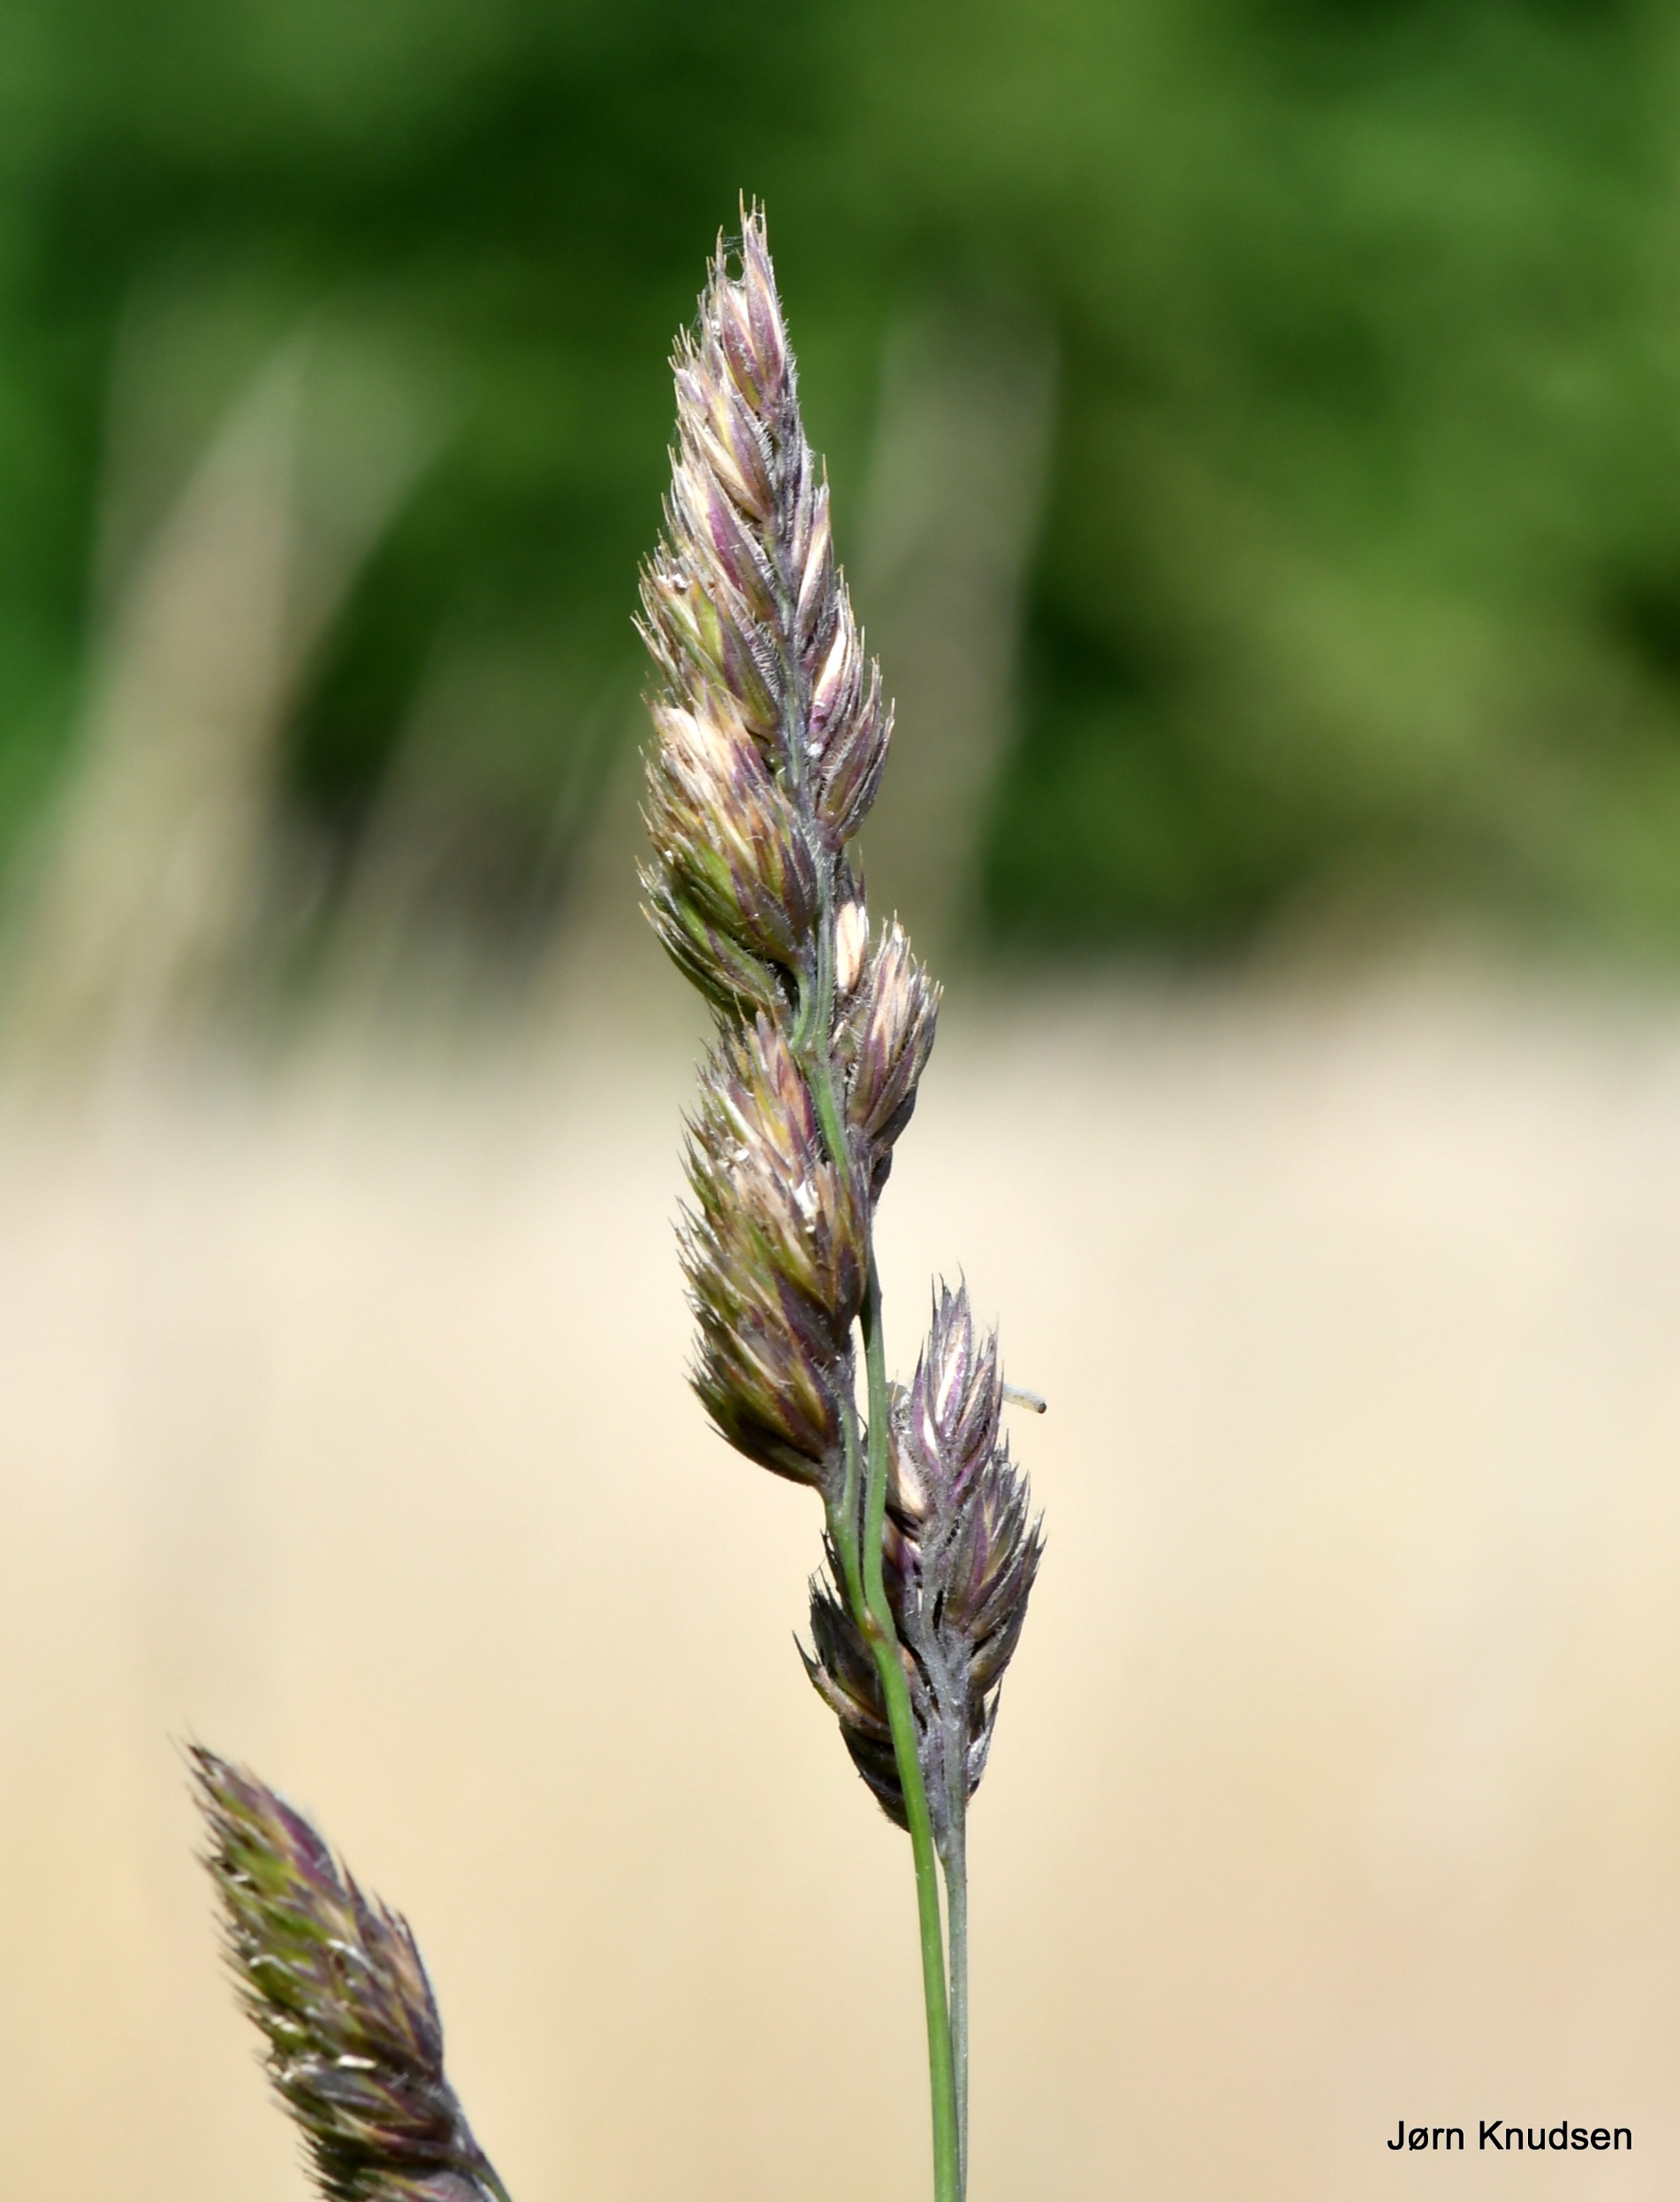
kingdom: Plantae
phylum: Tracheophyta
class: Liliopsida
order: Poales
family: Poaceae
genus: Dactylis
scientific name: Dactylis glomerata
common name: Almindelig hundegræs
